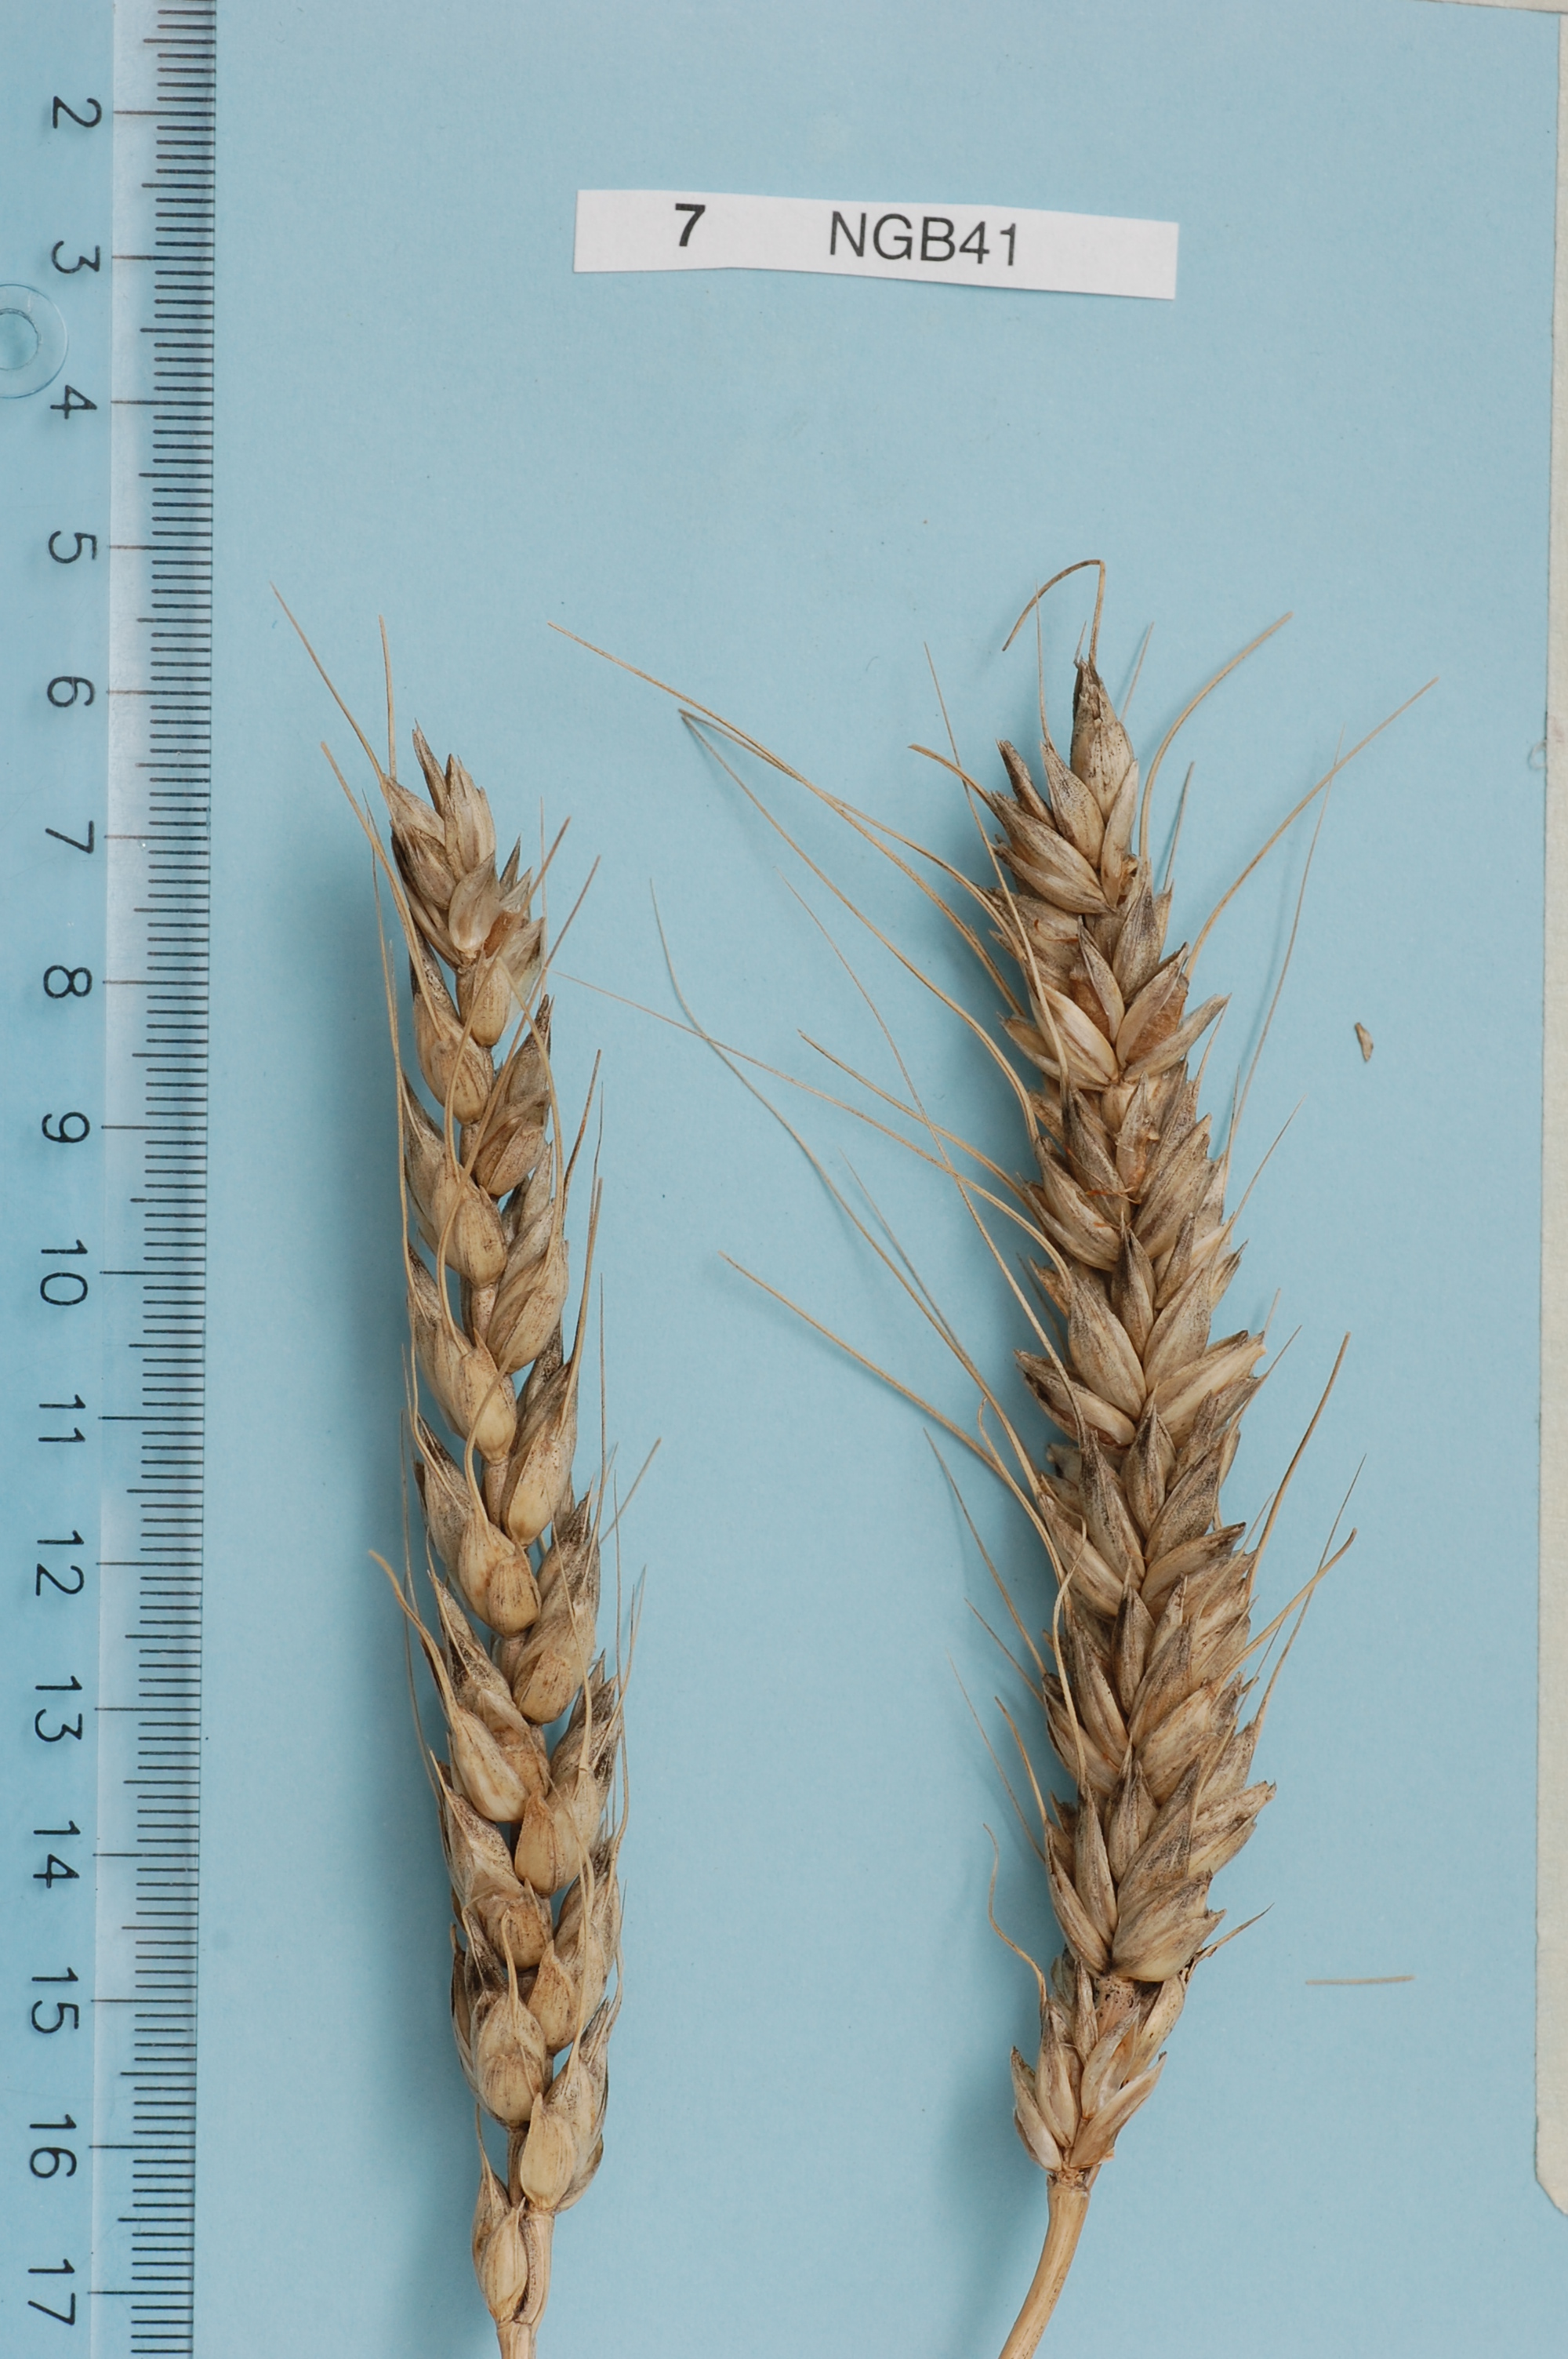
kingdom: Plantae
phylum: Tracheophyta
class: Liliopsida
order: Poales
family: Poaceae
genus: Triticum
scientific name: Triticum aestivum
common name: Common wheat
